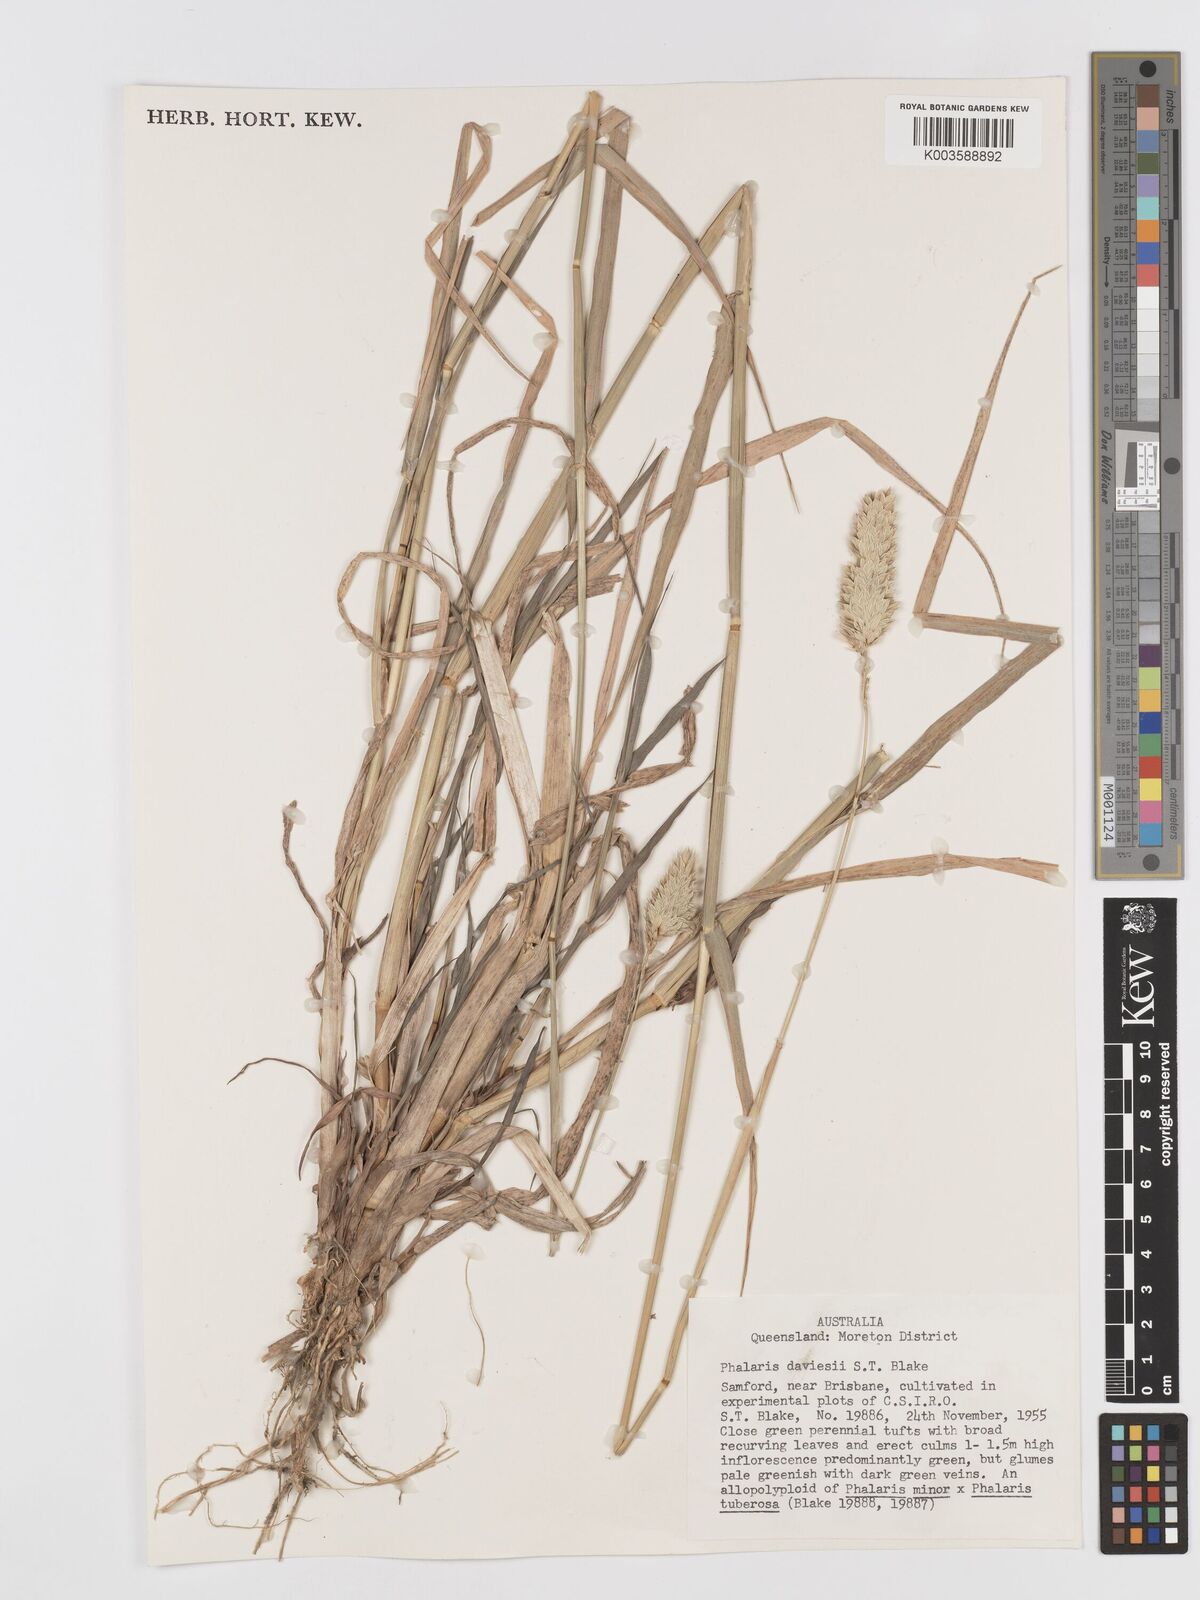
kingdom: Plantae
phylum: Tracheophyta
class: Liliopsida
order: Poales
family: Poaceae
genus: Phalaris
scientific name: Phalaris daviesii
